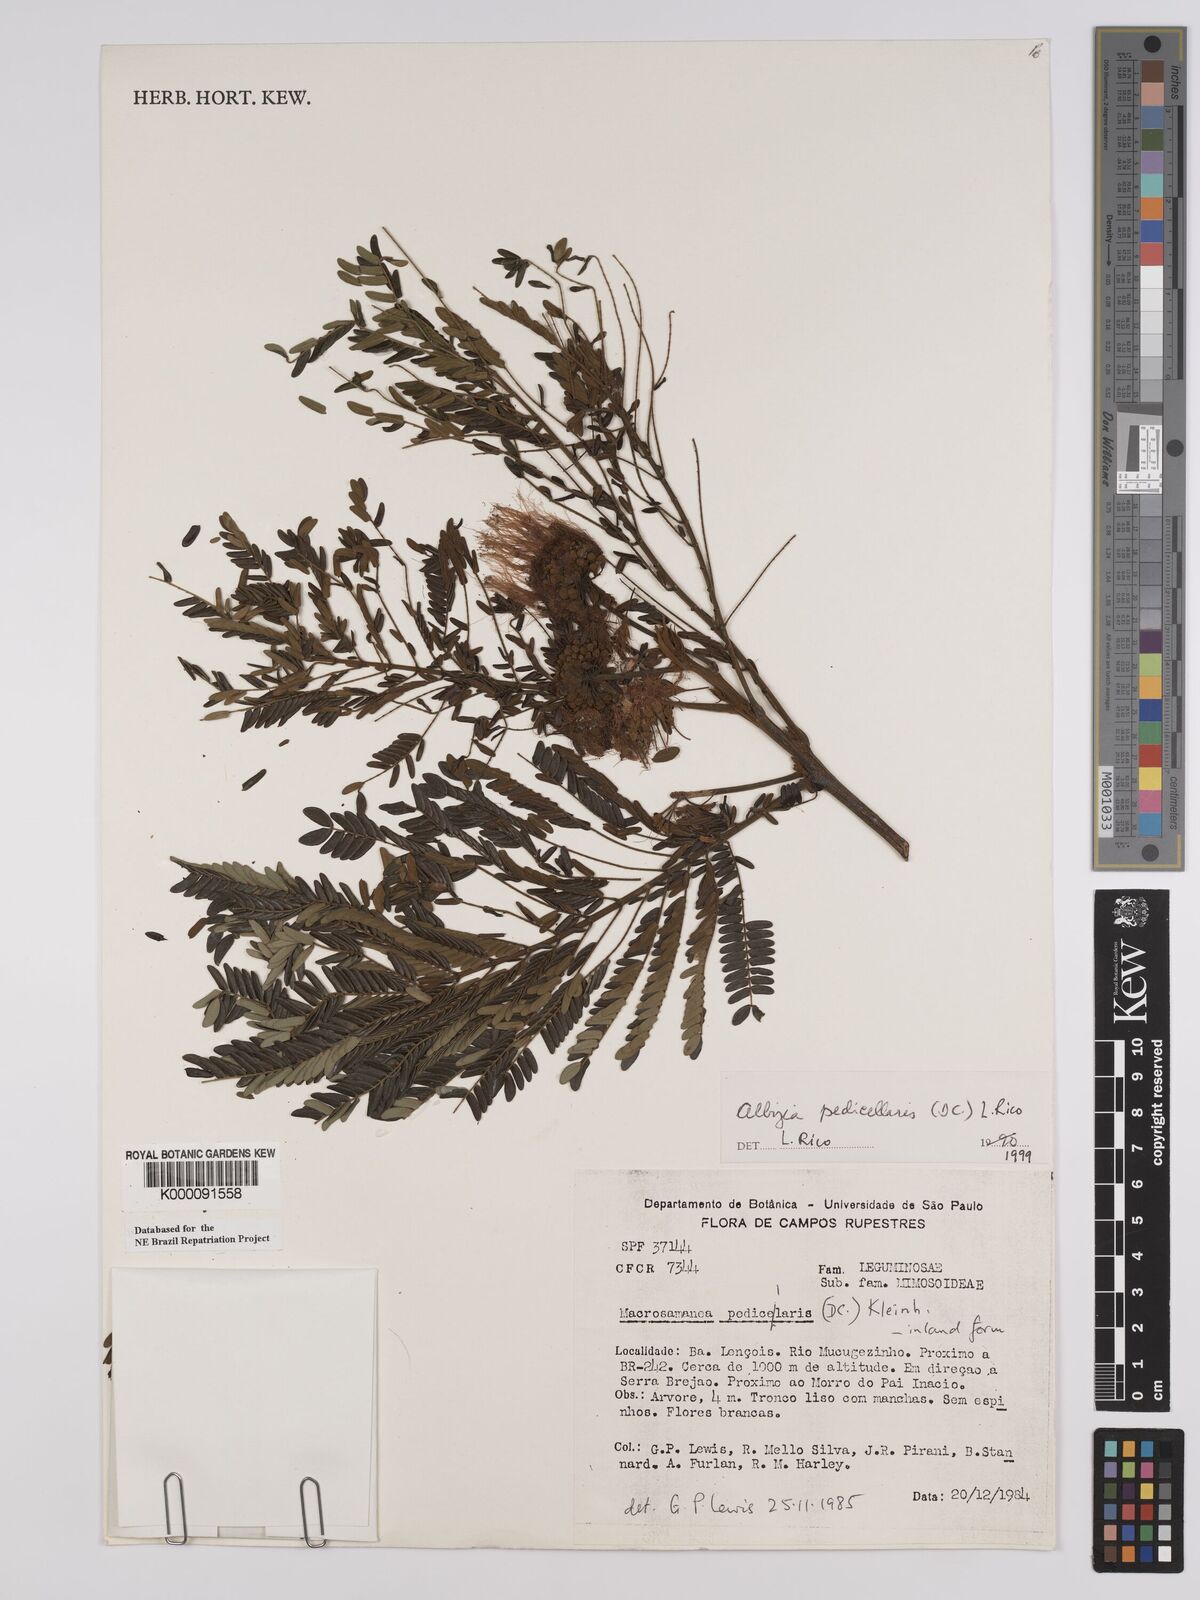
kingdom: Plantae
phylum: Tracheophyta
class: Magnoliopsida
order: Fabales
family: Fabaceae
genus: Balizia
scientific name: Balizia pedicellaris
